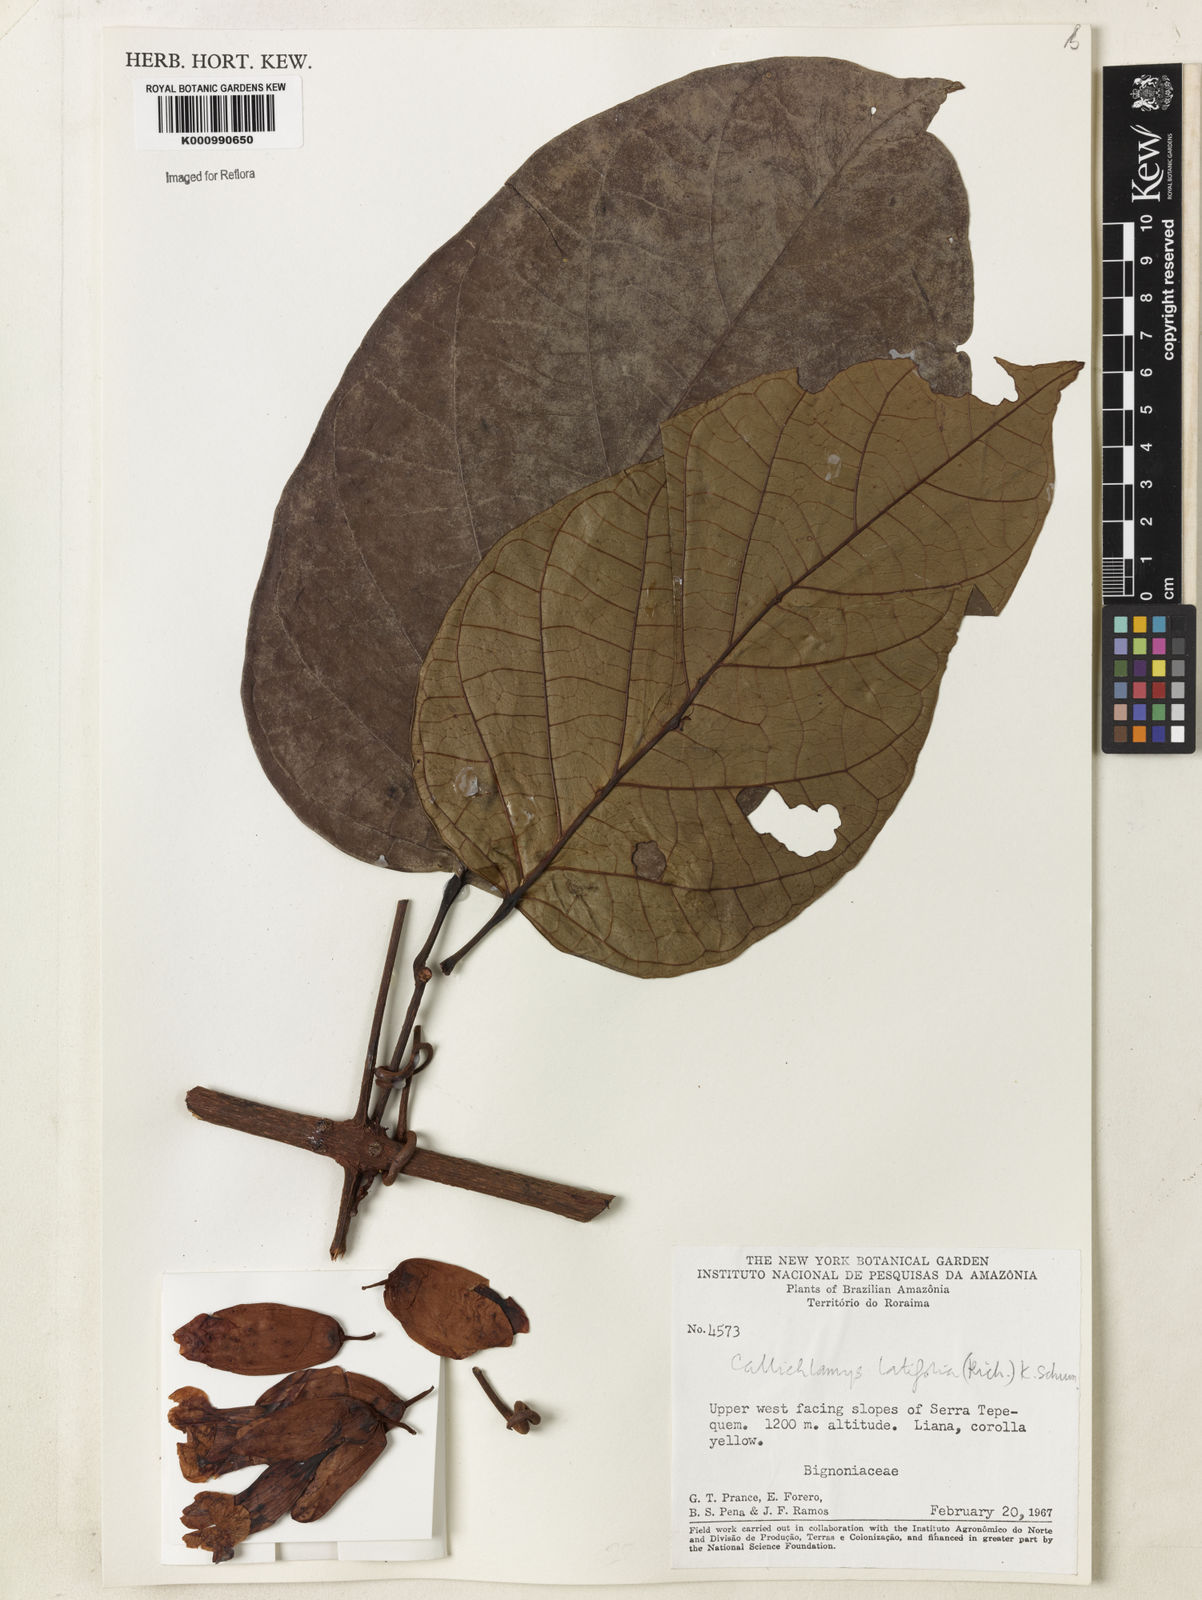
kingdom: Plantae
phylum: Tracheophyta
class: Magnoliopsida
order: Lamiales
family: Bignoniaceae
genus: Callichlamys
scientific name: Callichlamys latifolia
